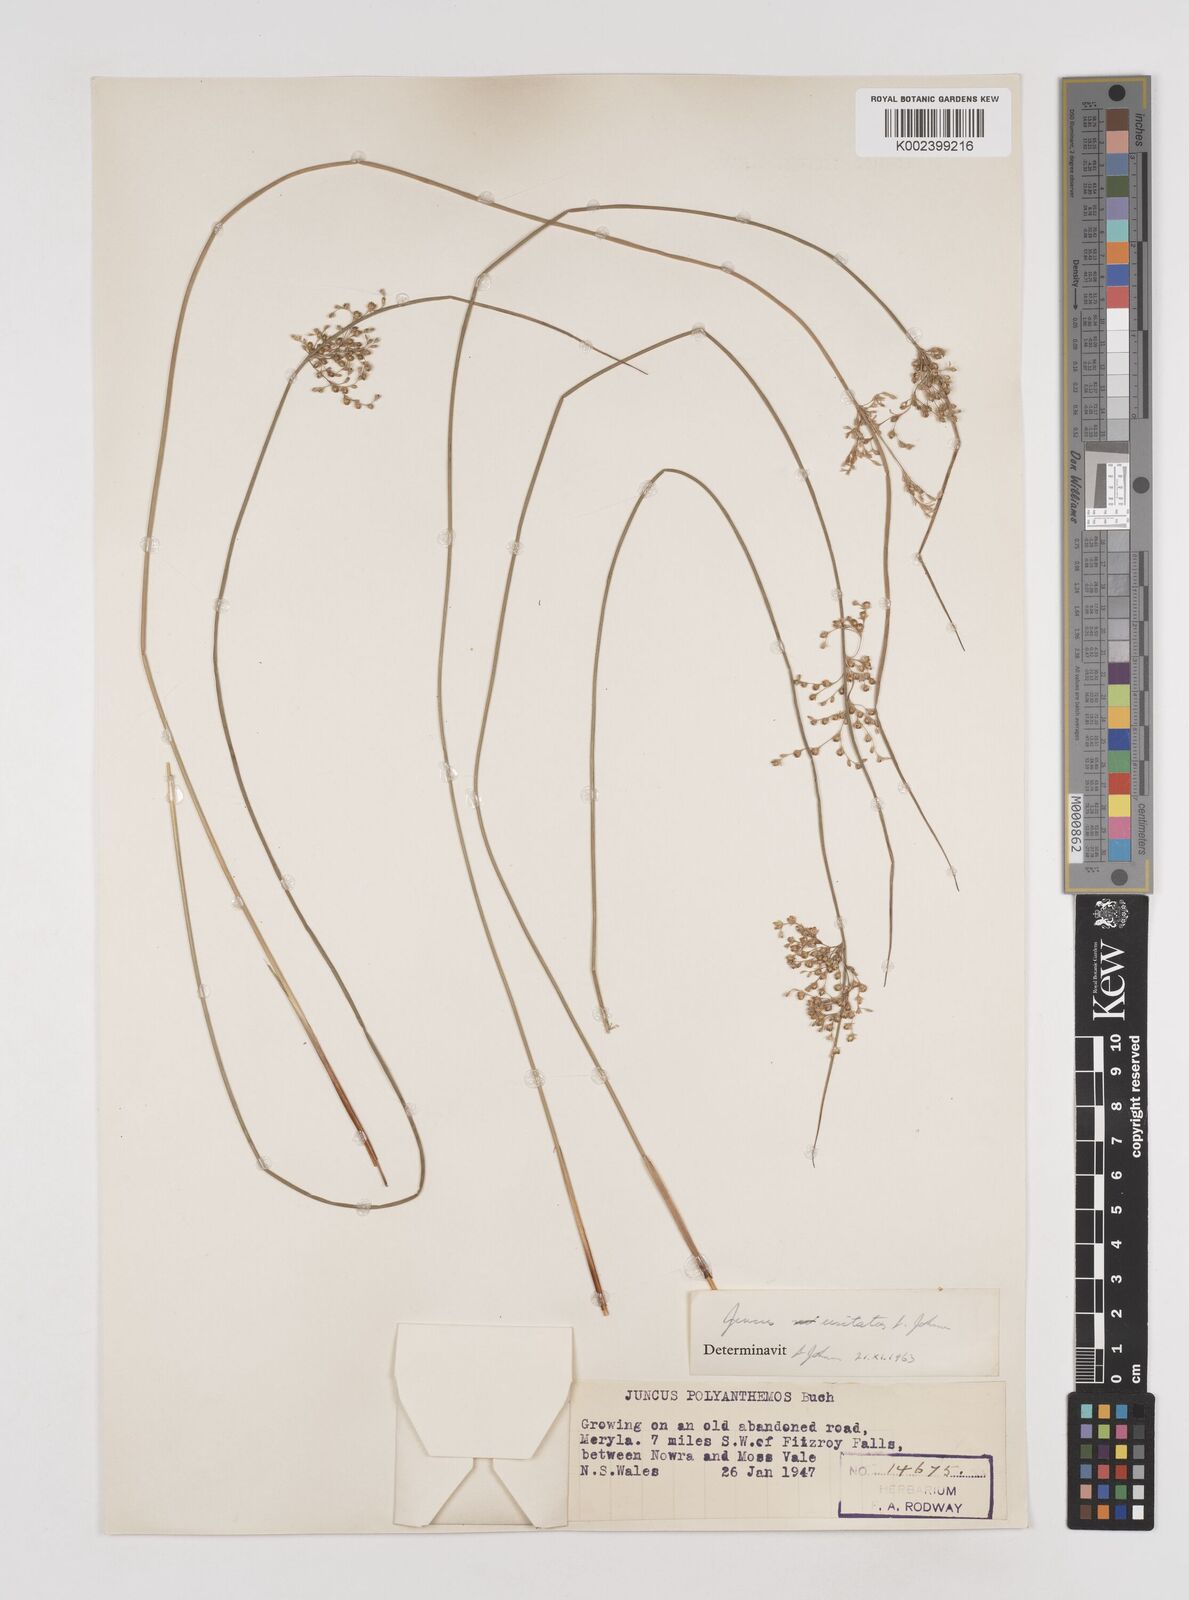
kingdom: Plantae
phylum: Tracheophyta
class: Liliopsida
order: Poales
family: Juncaceae
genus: Juncus
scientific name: Juncus usitatus
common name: Rush
